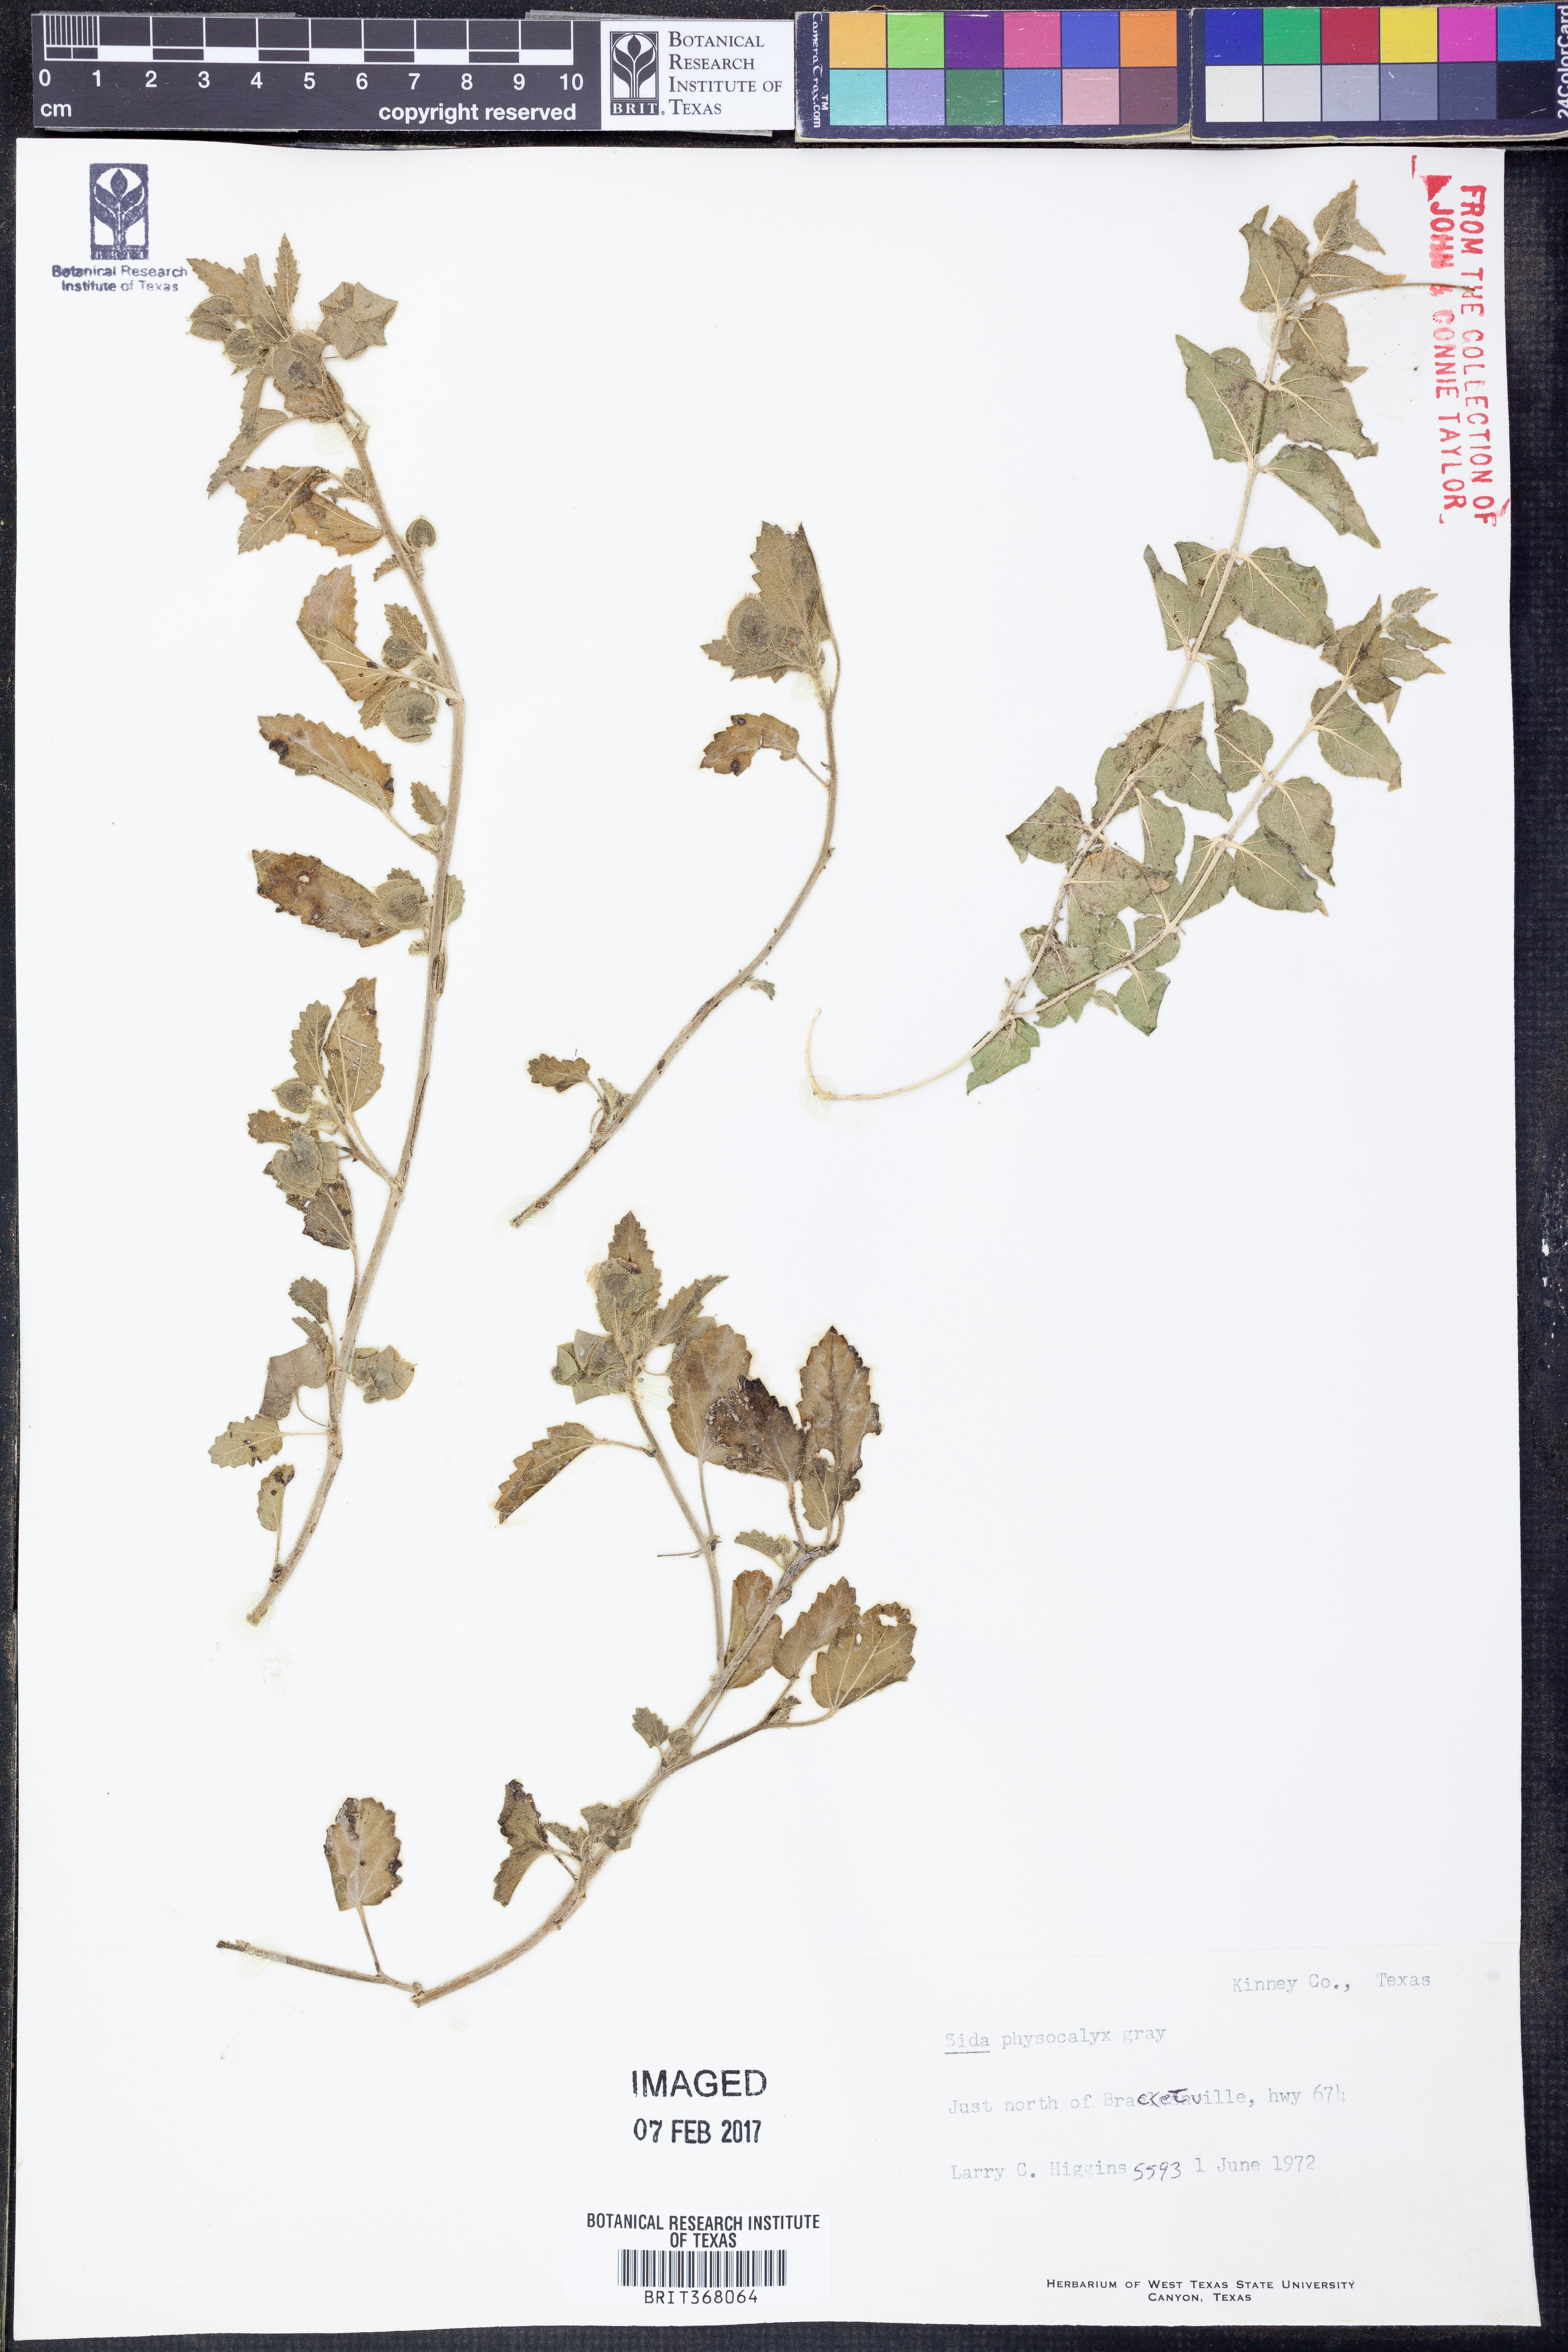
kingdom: Plantae
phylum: Tracheophyta
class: Magnoliopsida
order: Malvales
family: Malvaceae
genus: Rhynchosida
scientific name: Rhynchosida physocalyx
